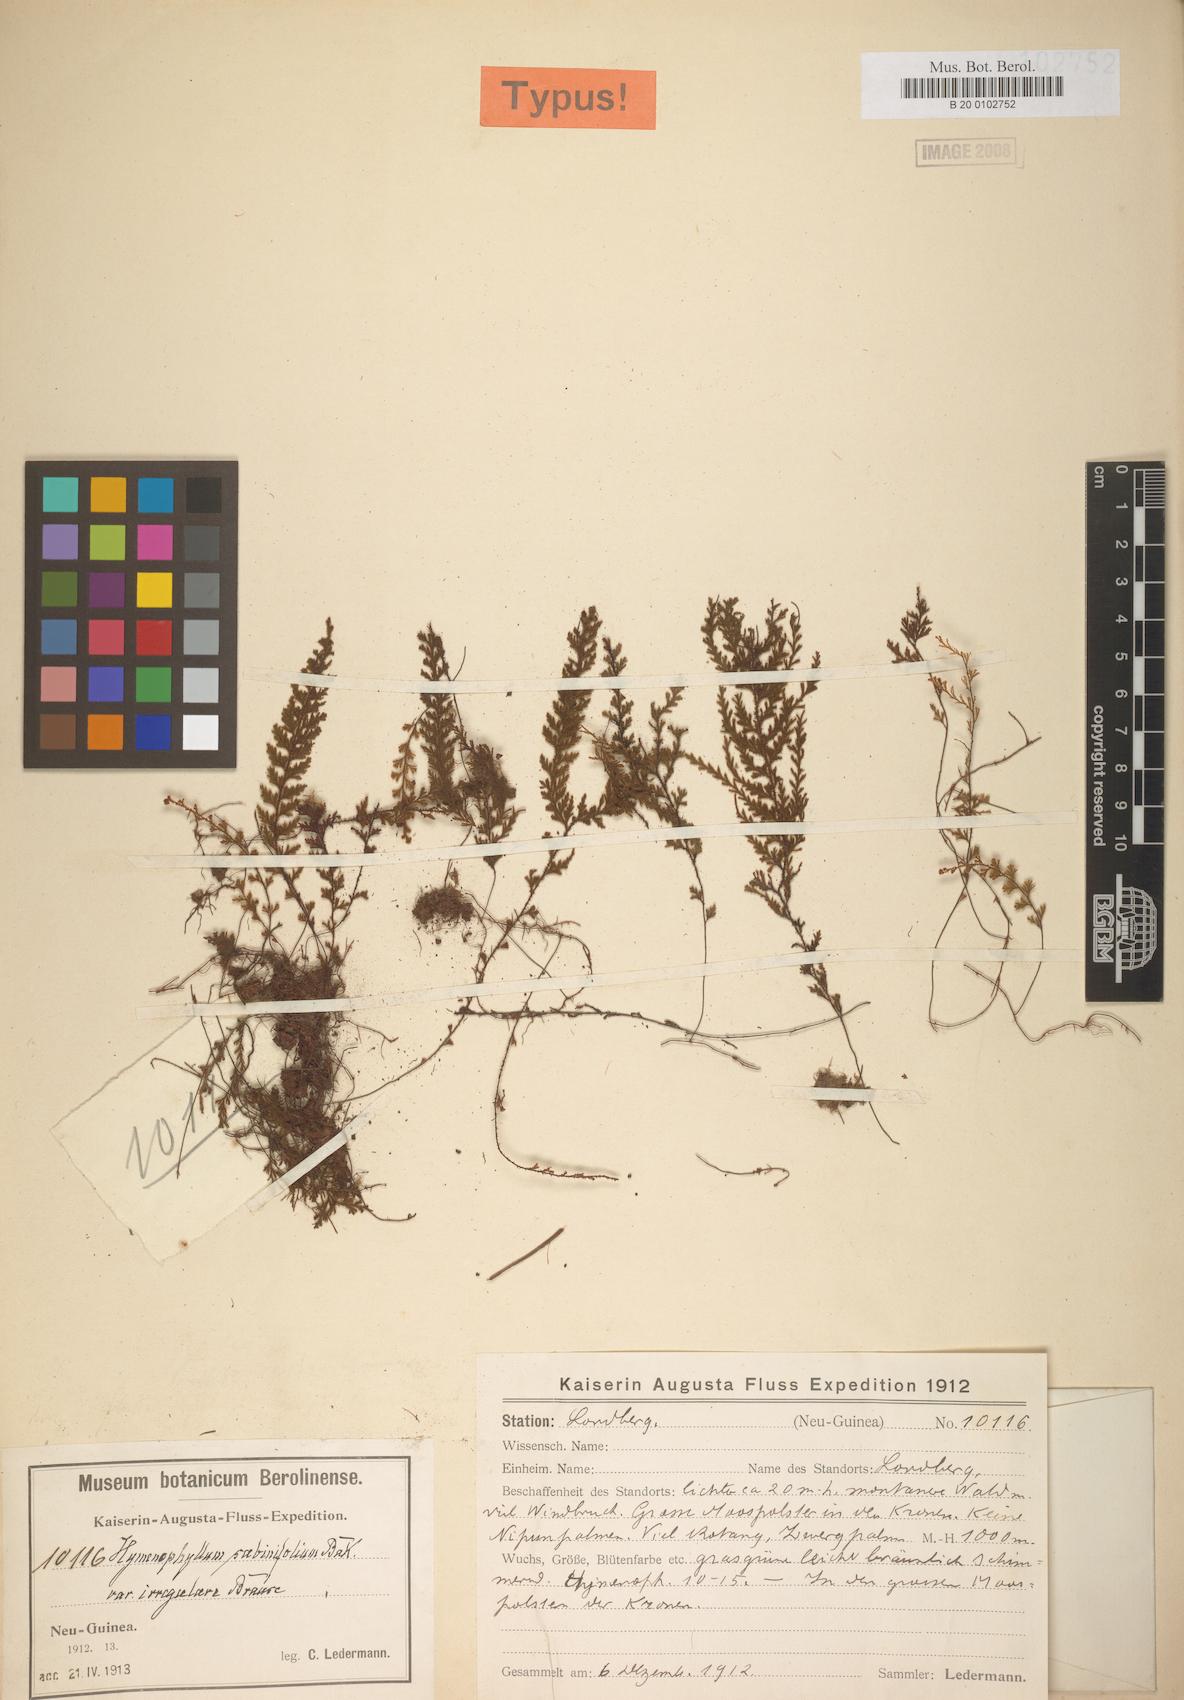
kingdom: Plantae
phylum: Tracheophyta
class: Polypodiopsida
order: Hymenophyllales
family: Hymenophyllaceae
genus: Hymenophyllum
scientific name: Hymenophyllum sabinifolium
